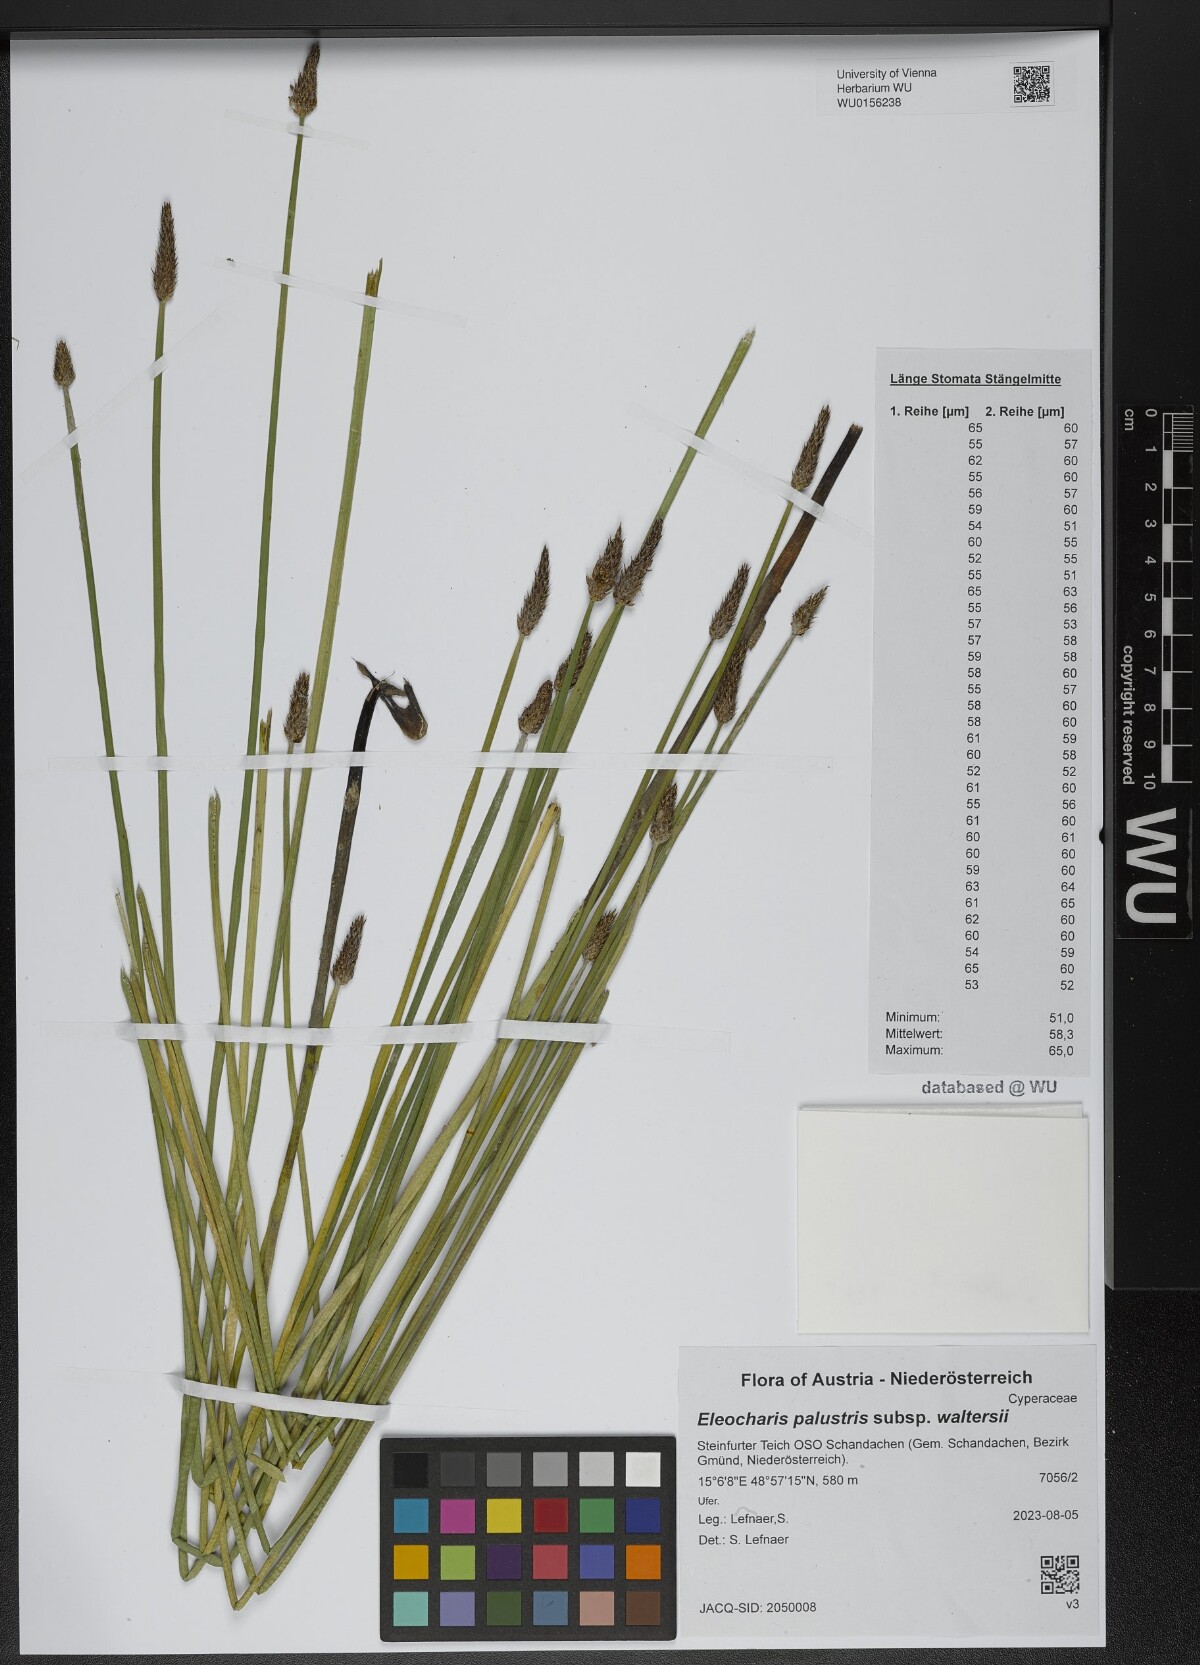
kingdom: Plantae
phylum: Tracheophyta
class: Liliopsida
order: Poales
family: Cyperaceae
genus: Eleocharis
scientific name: Eleocharis palustris
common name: Common spike-rush
